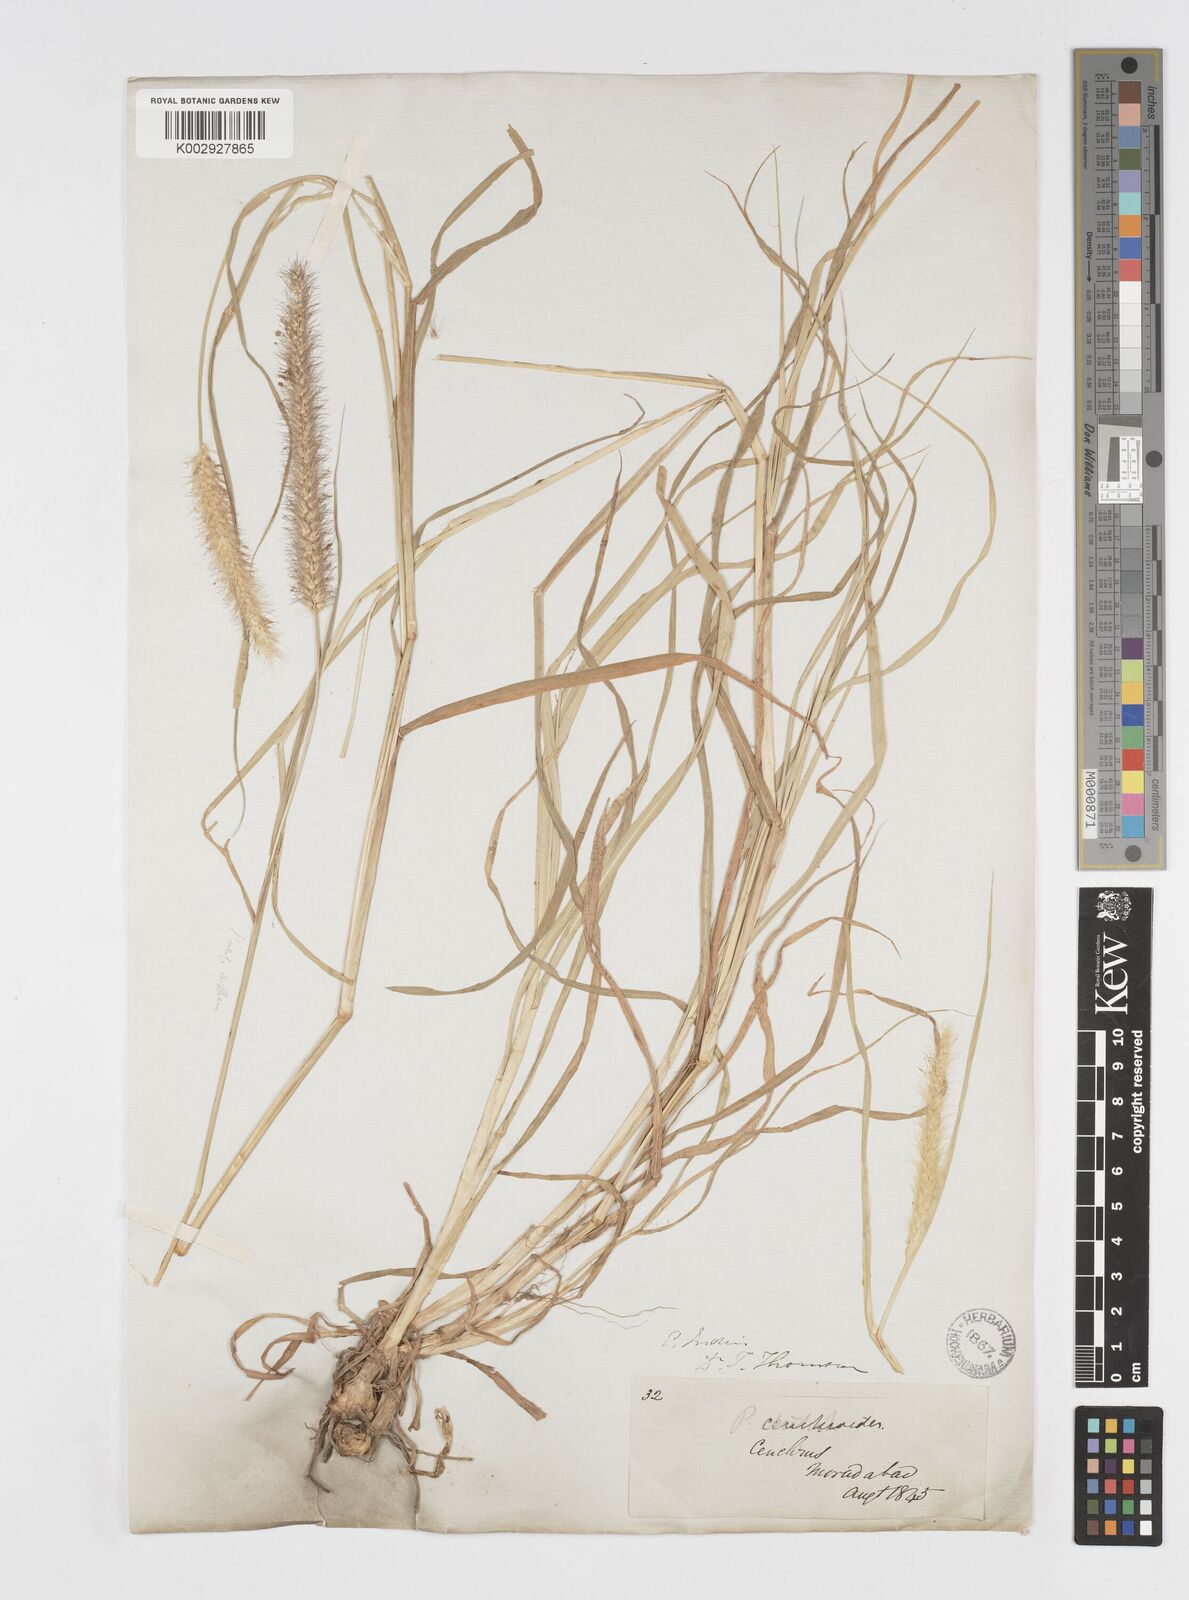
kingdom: Plantae
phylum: Tracheophyta
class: Liliopsida
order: Poales
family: Poaceae
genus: Cenchrus
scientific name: Cenchrus ciliaris
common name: Buffelgrass
